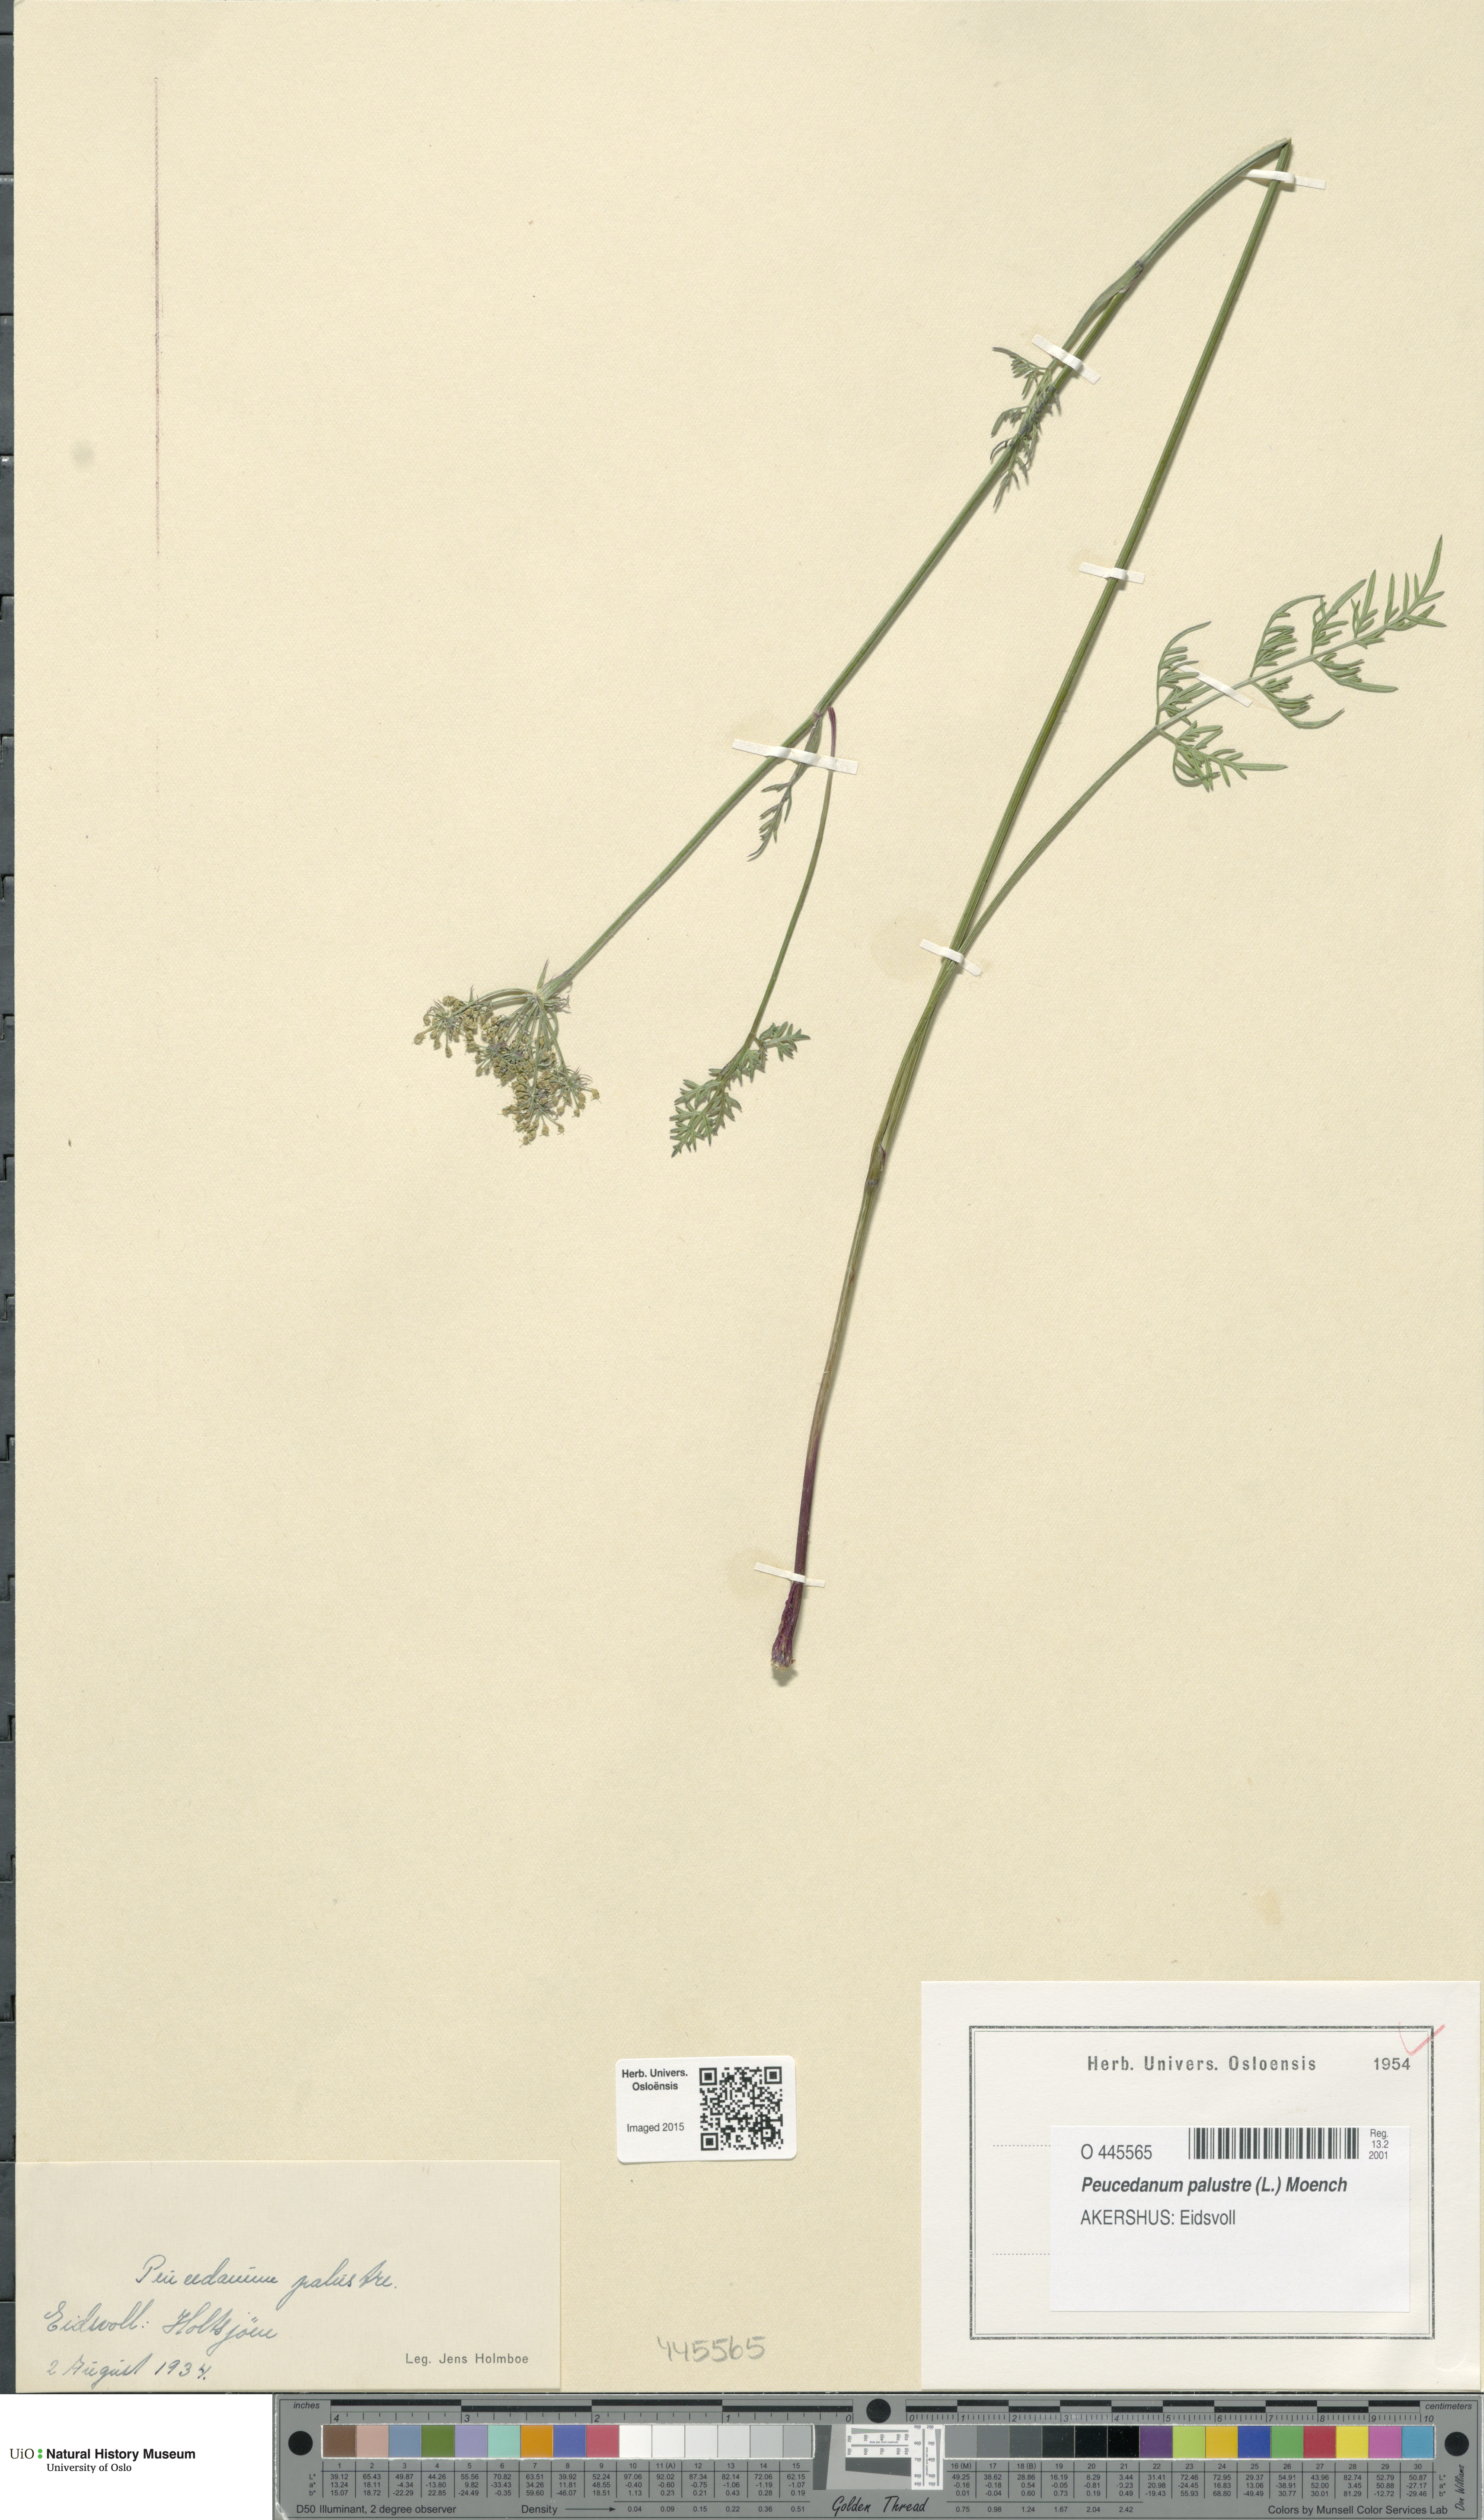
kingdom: Plantae
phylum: Tracheophyta
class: Magnoliopsida
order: Apiales
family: Apiaceae
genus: Thysselinum
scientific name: Thysselinum palustre
